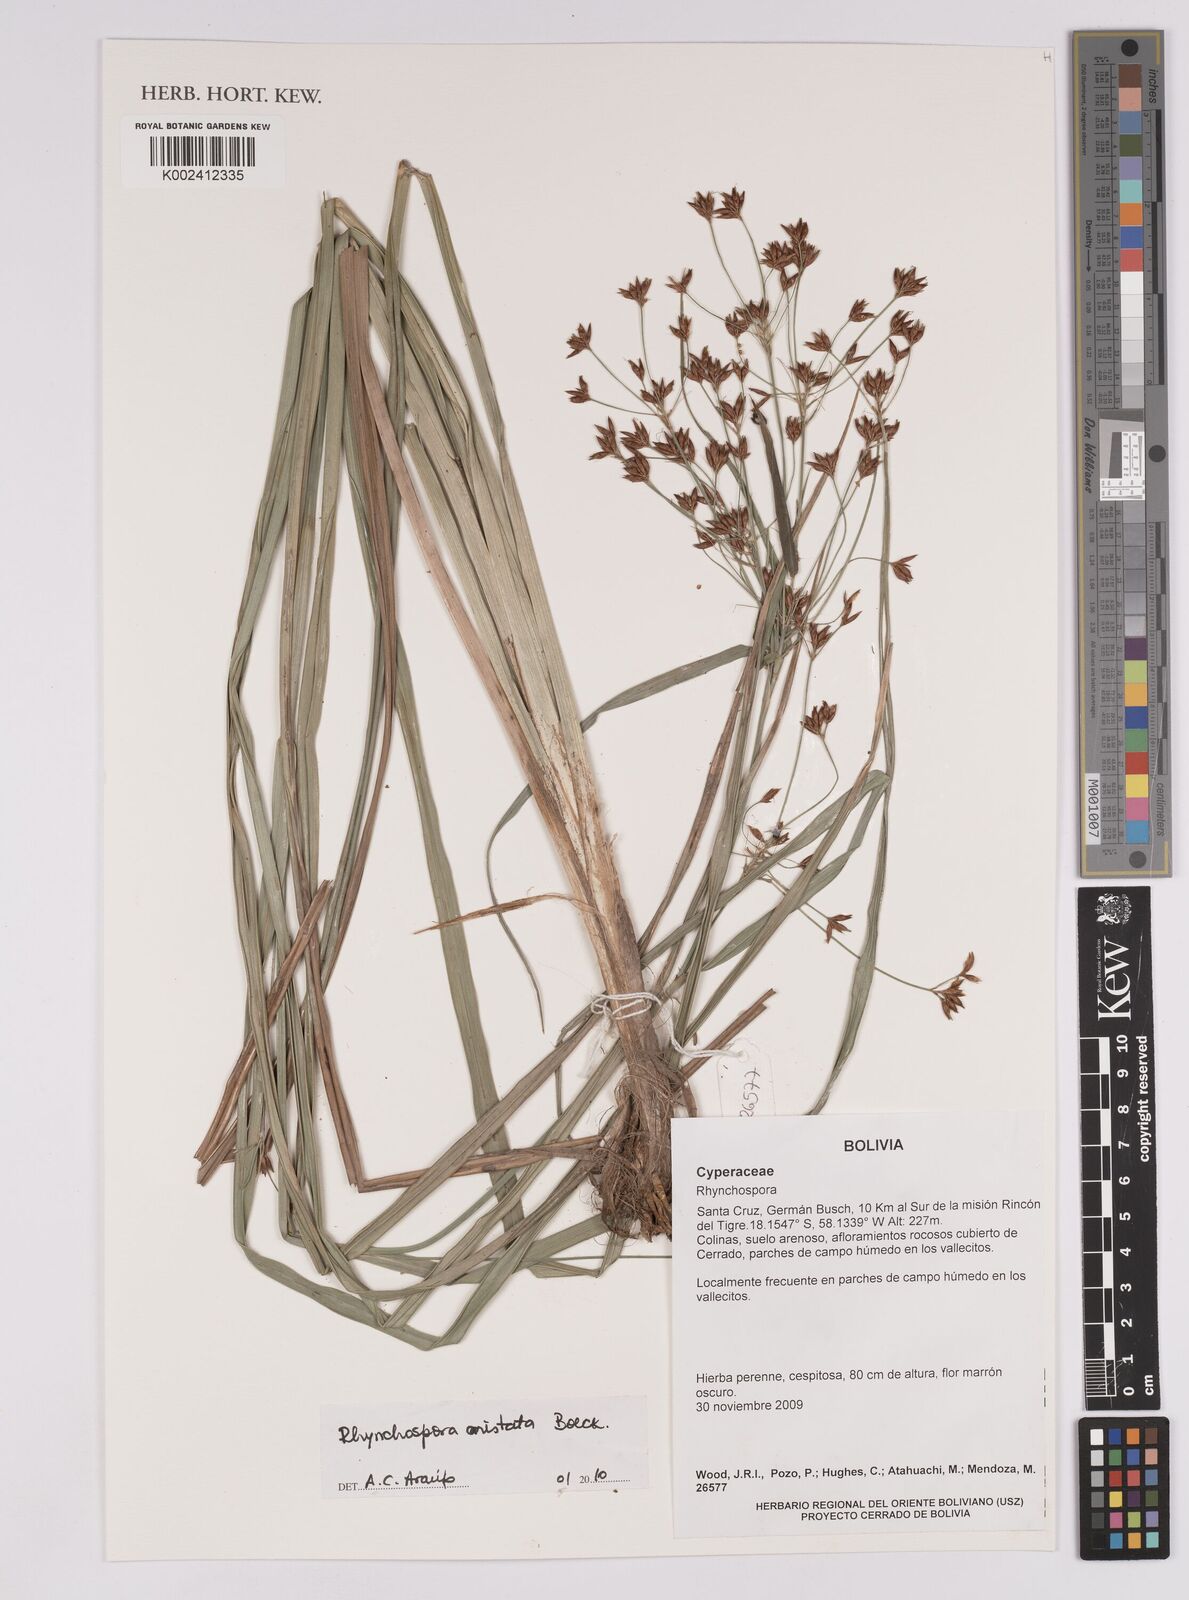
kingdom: Plantae
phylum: Tracheophyta
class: Liliopsida
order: Poales
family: Cyperaceae
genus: Rhynchospora
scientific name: Rhynchospora aristata
